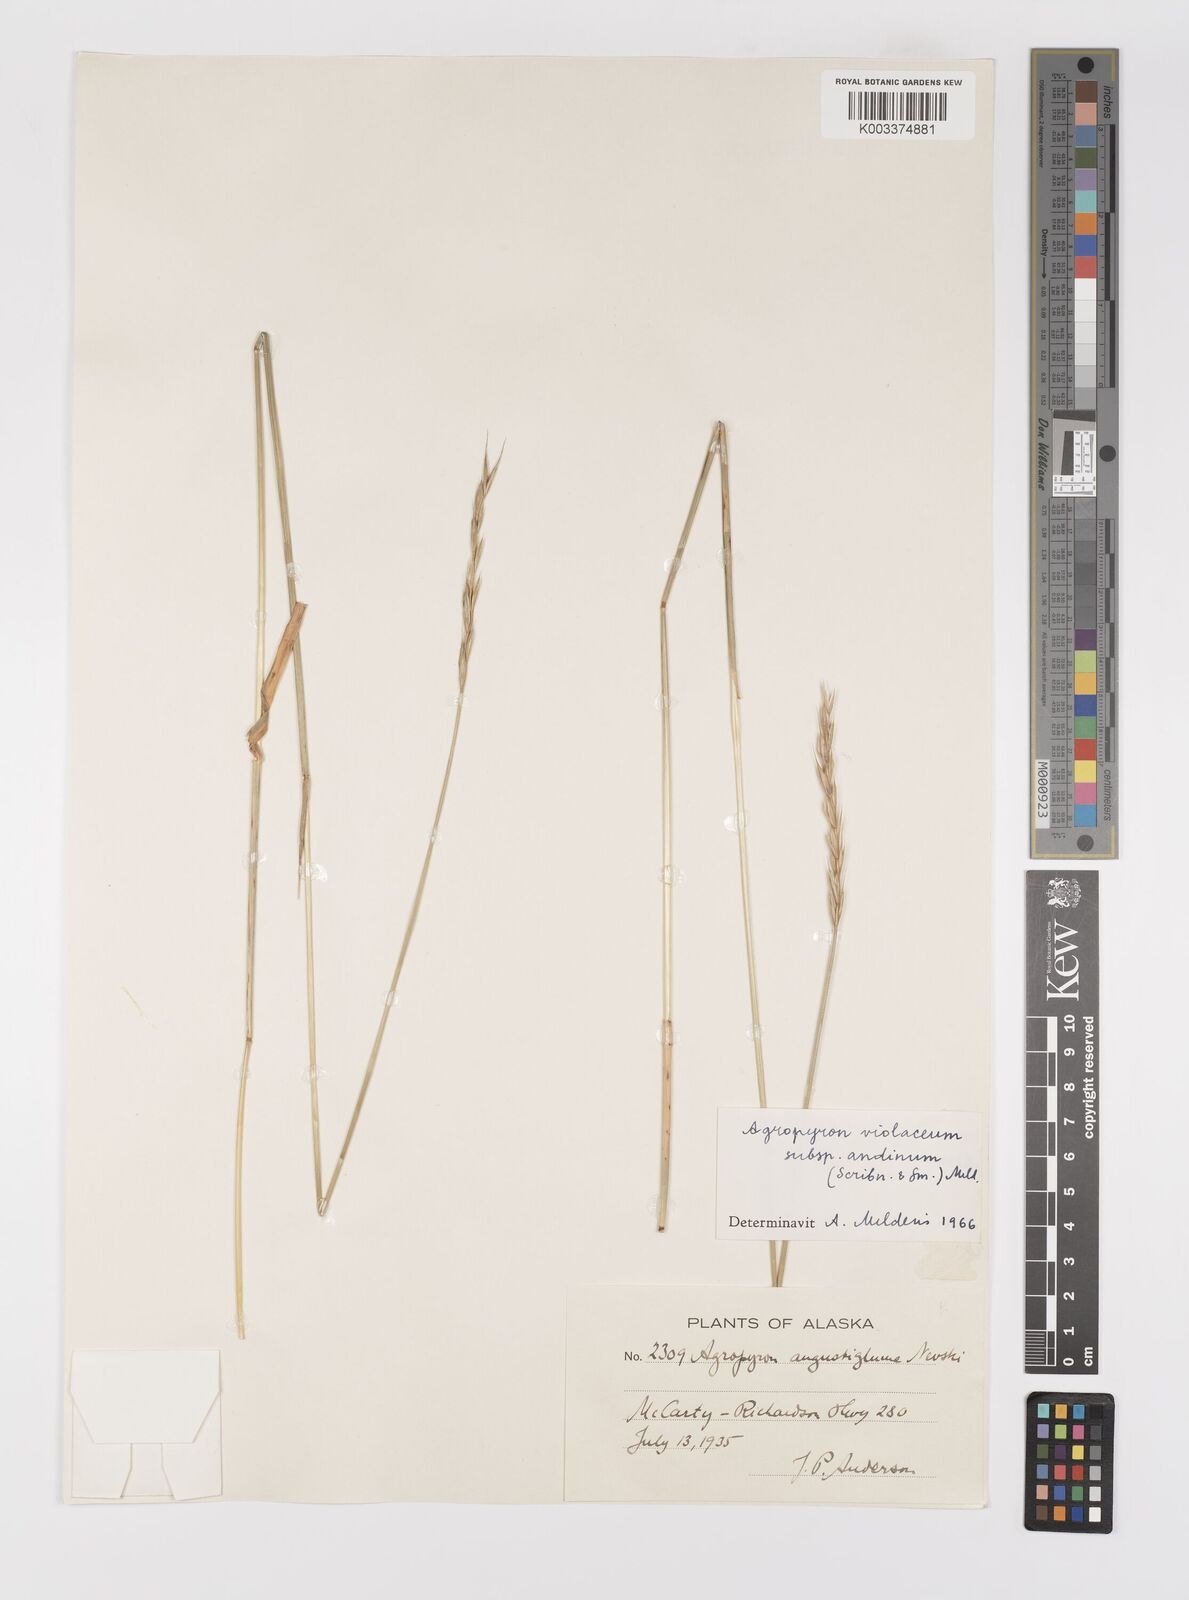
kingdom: Plantae
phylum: Tracheophyta
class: Liliopsida
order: Poales
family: Poaceae
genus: Elymus
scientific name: Elymus violaceus
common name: Arctic wheatgrass
